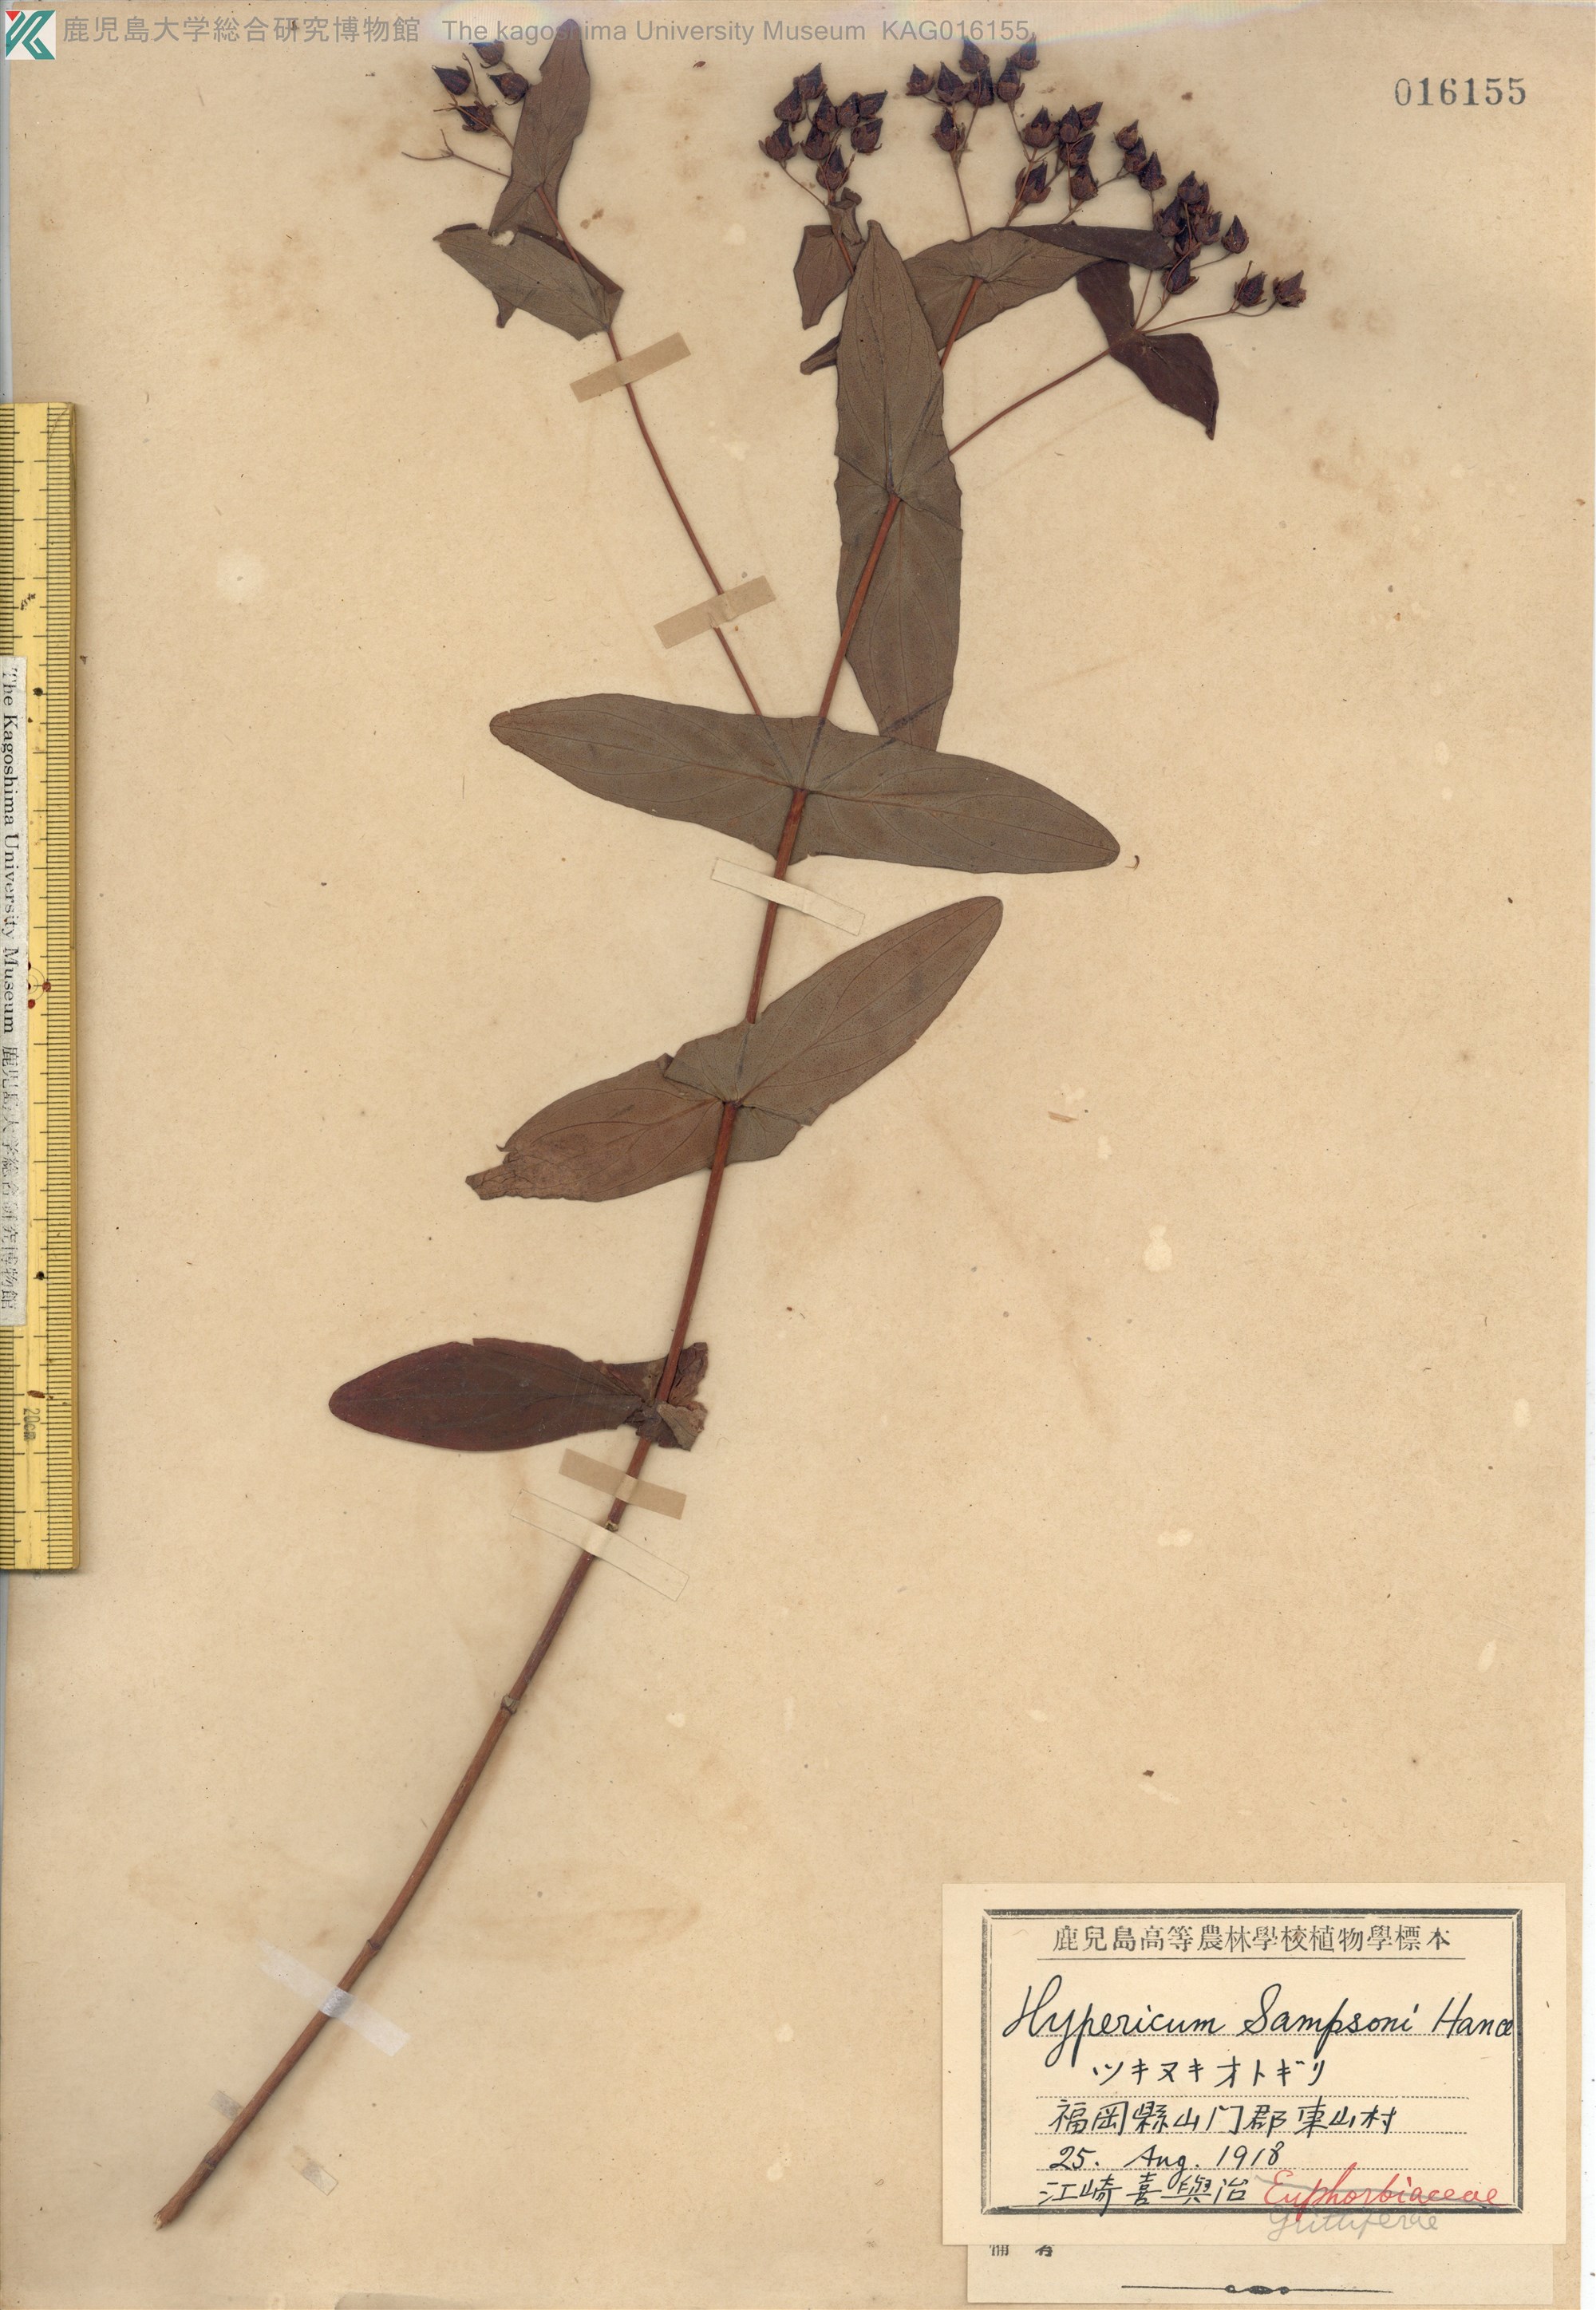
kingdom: Plantae
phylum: Tracheophyta
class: Magnoliopsida
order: Malpighiales
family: Hypericaceae
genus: Hypericum
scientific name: Hypericum sampsonii
